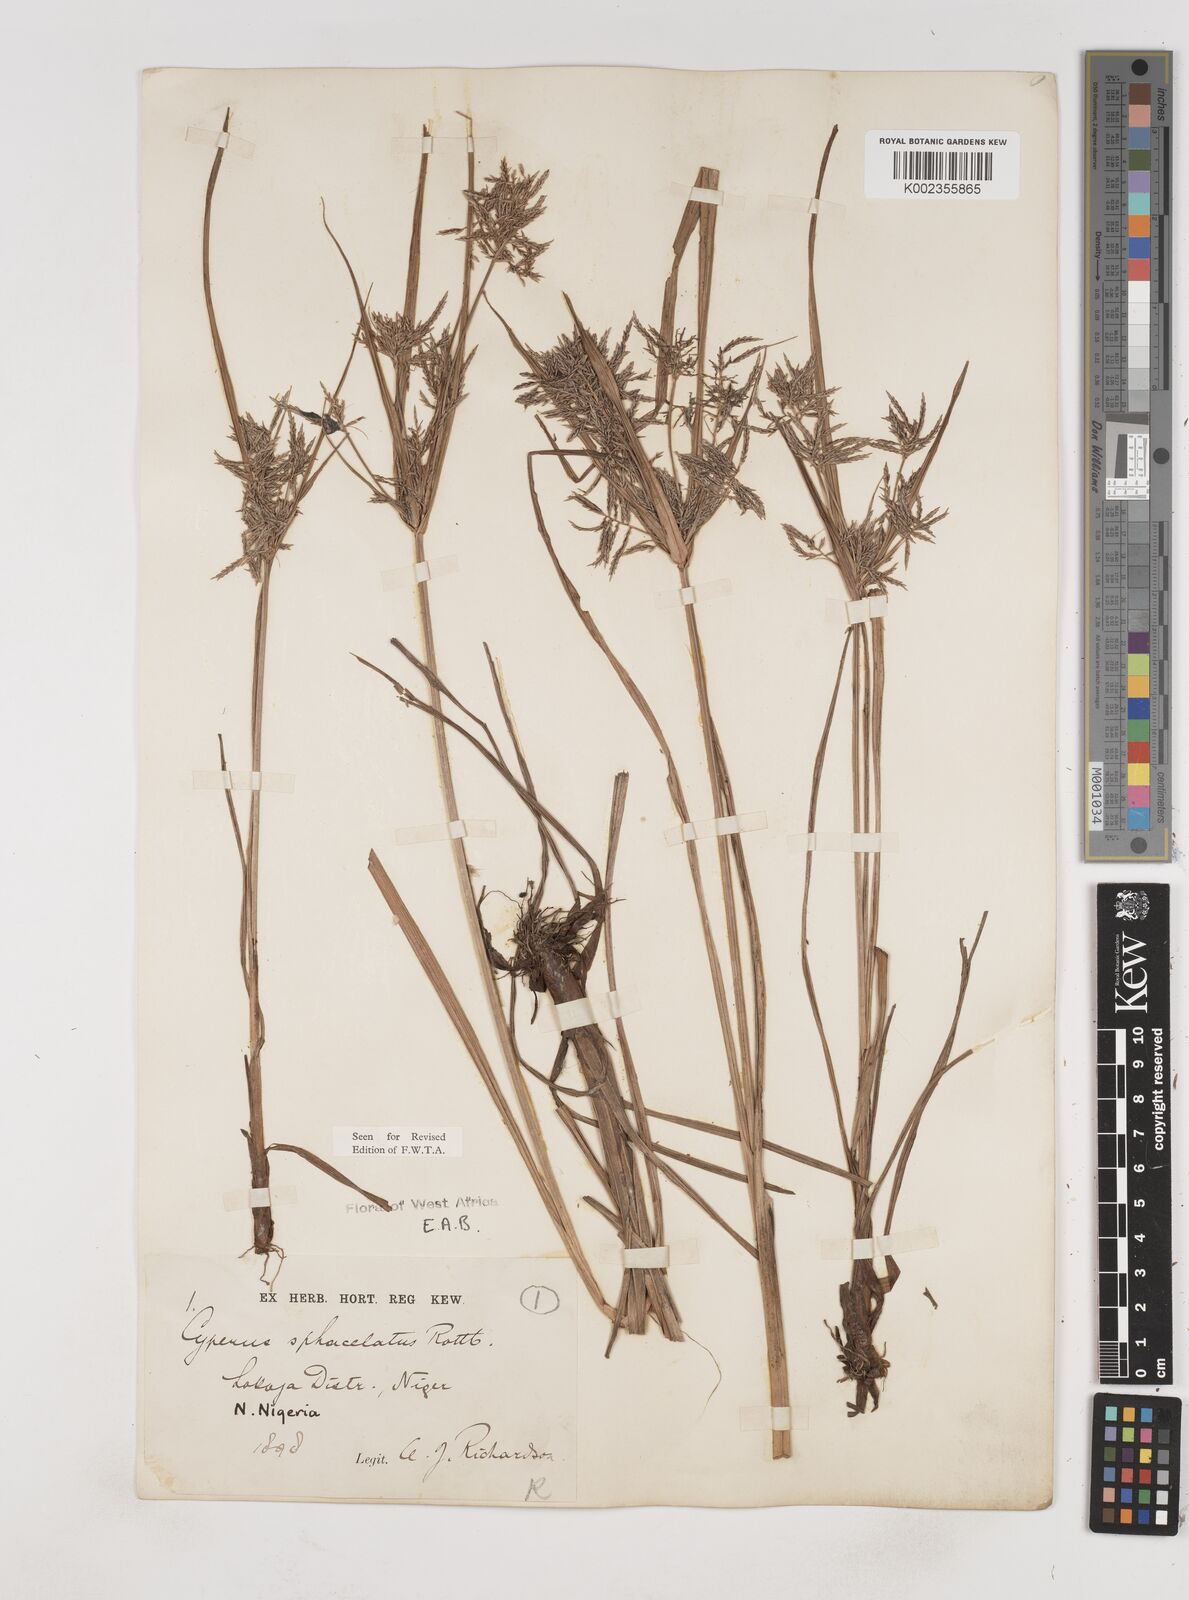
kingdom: Plantae
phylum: Tracheophyta
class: Liliopsida
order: Poales
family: Cyperaceae
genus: Cyperus
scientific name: Cyperus sphacelatus
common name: Roadside flatsedge
